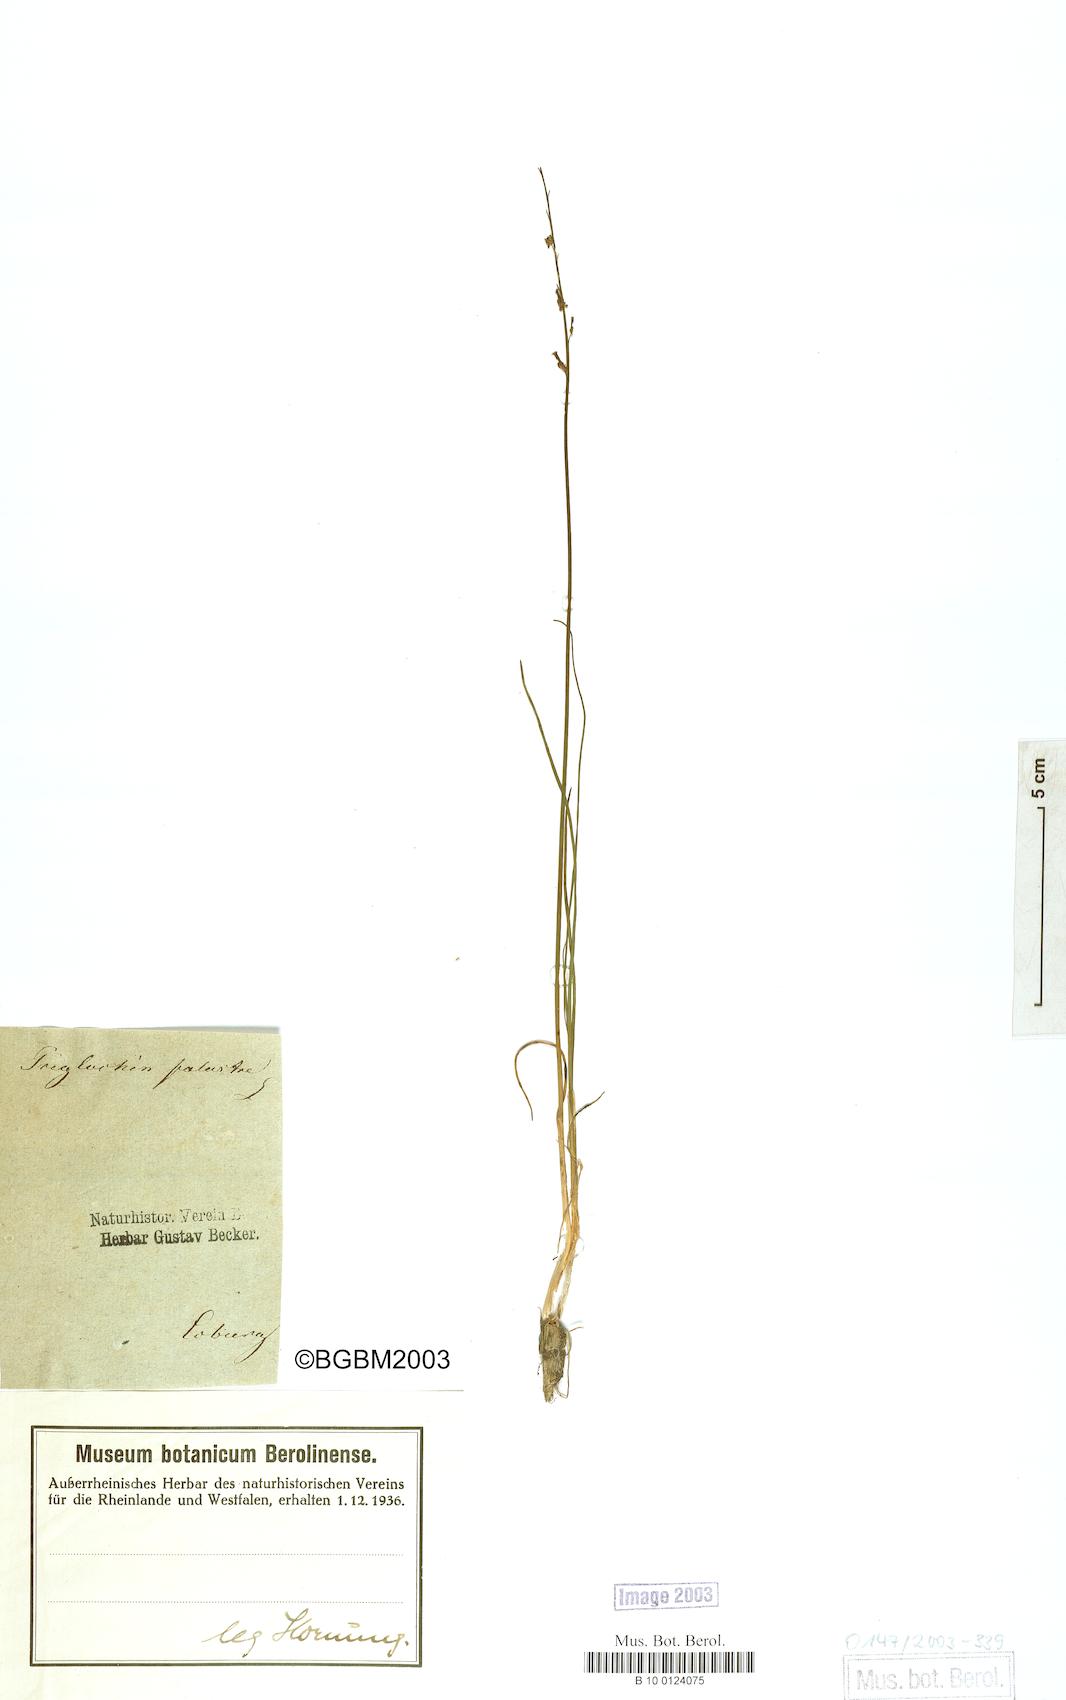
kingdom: Plantae
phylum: Tracheophyta
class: Liliopsida
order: Alismatales
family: Juncaginaceae
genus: Triglochin
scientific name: Triglochin palustris
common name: Marsh arrowgrass
